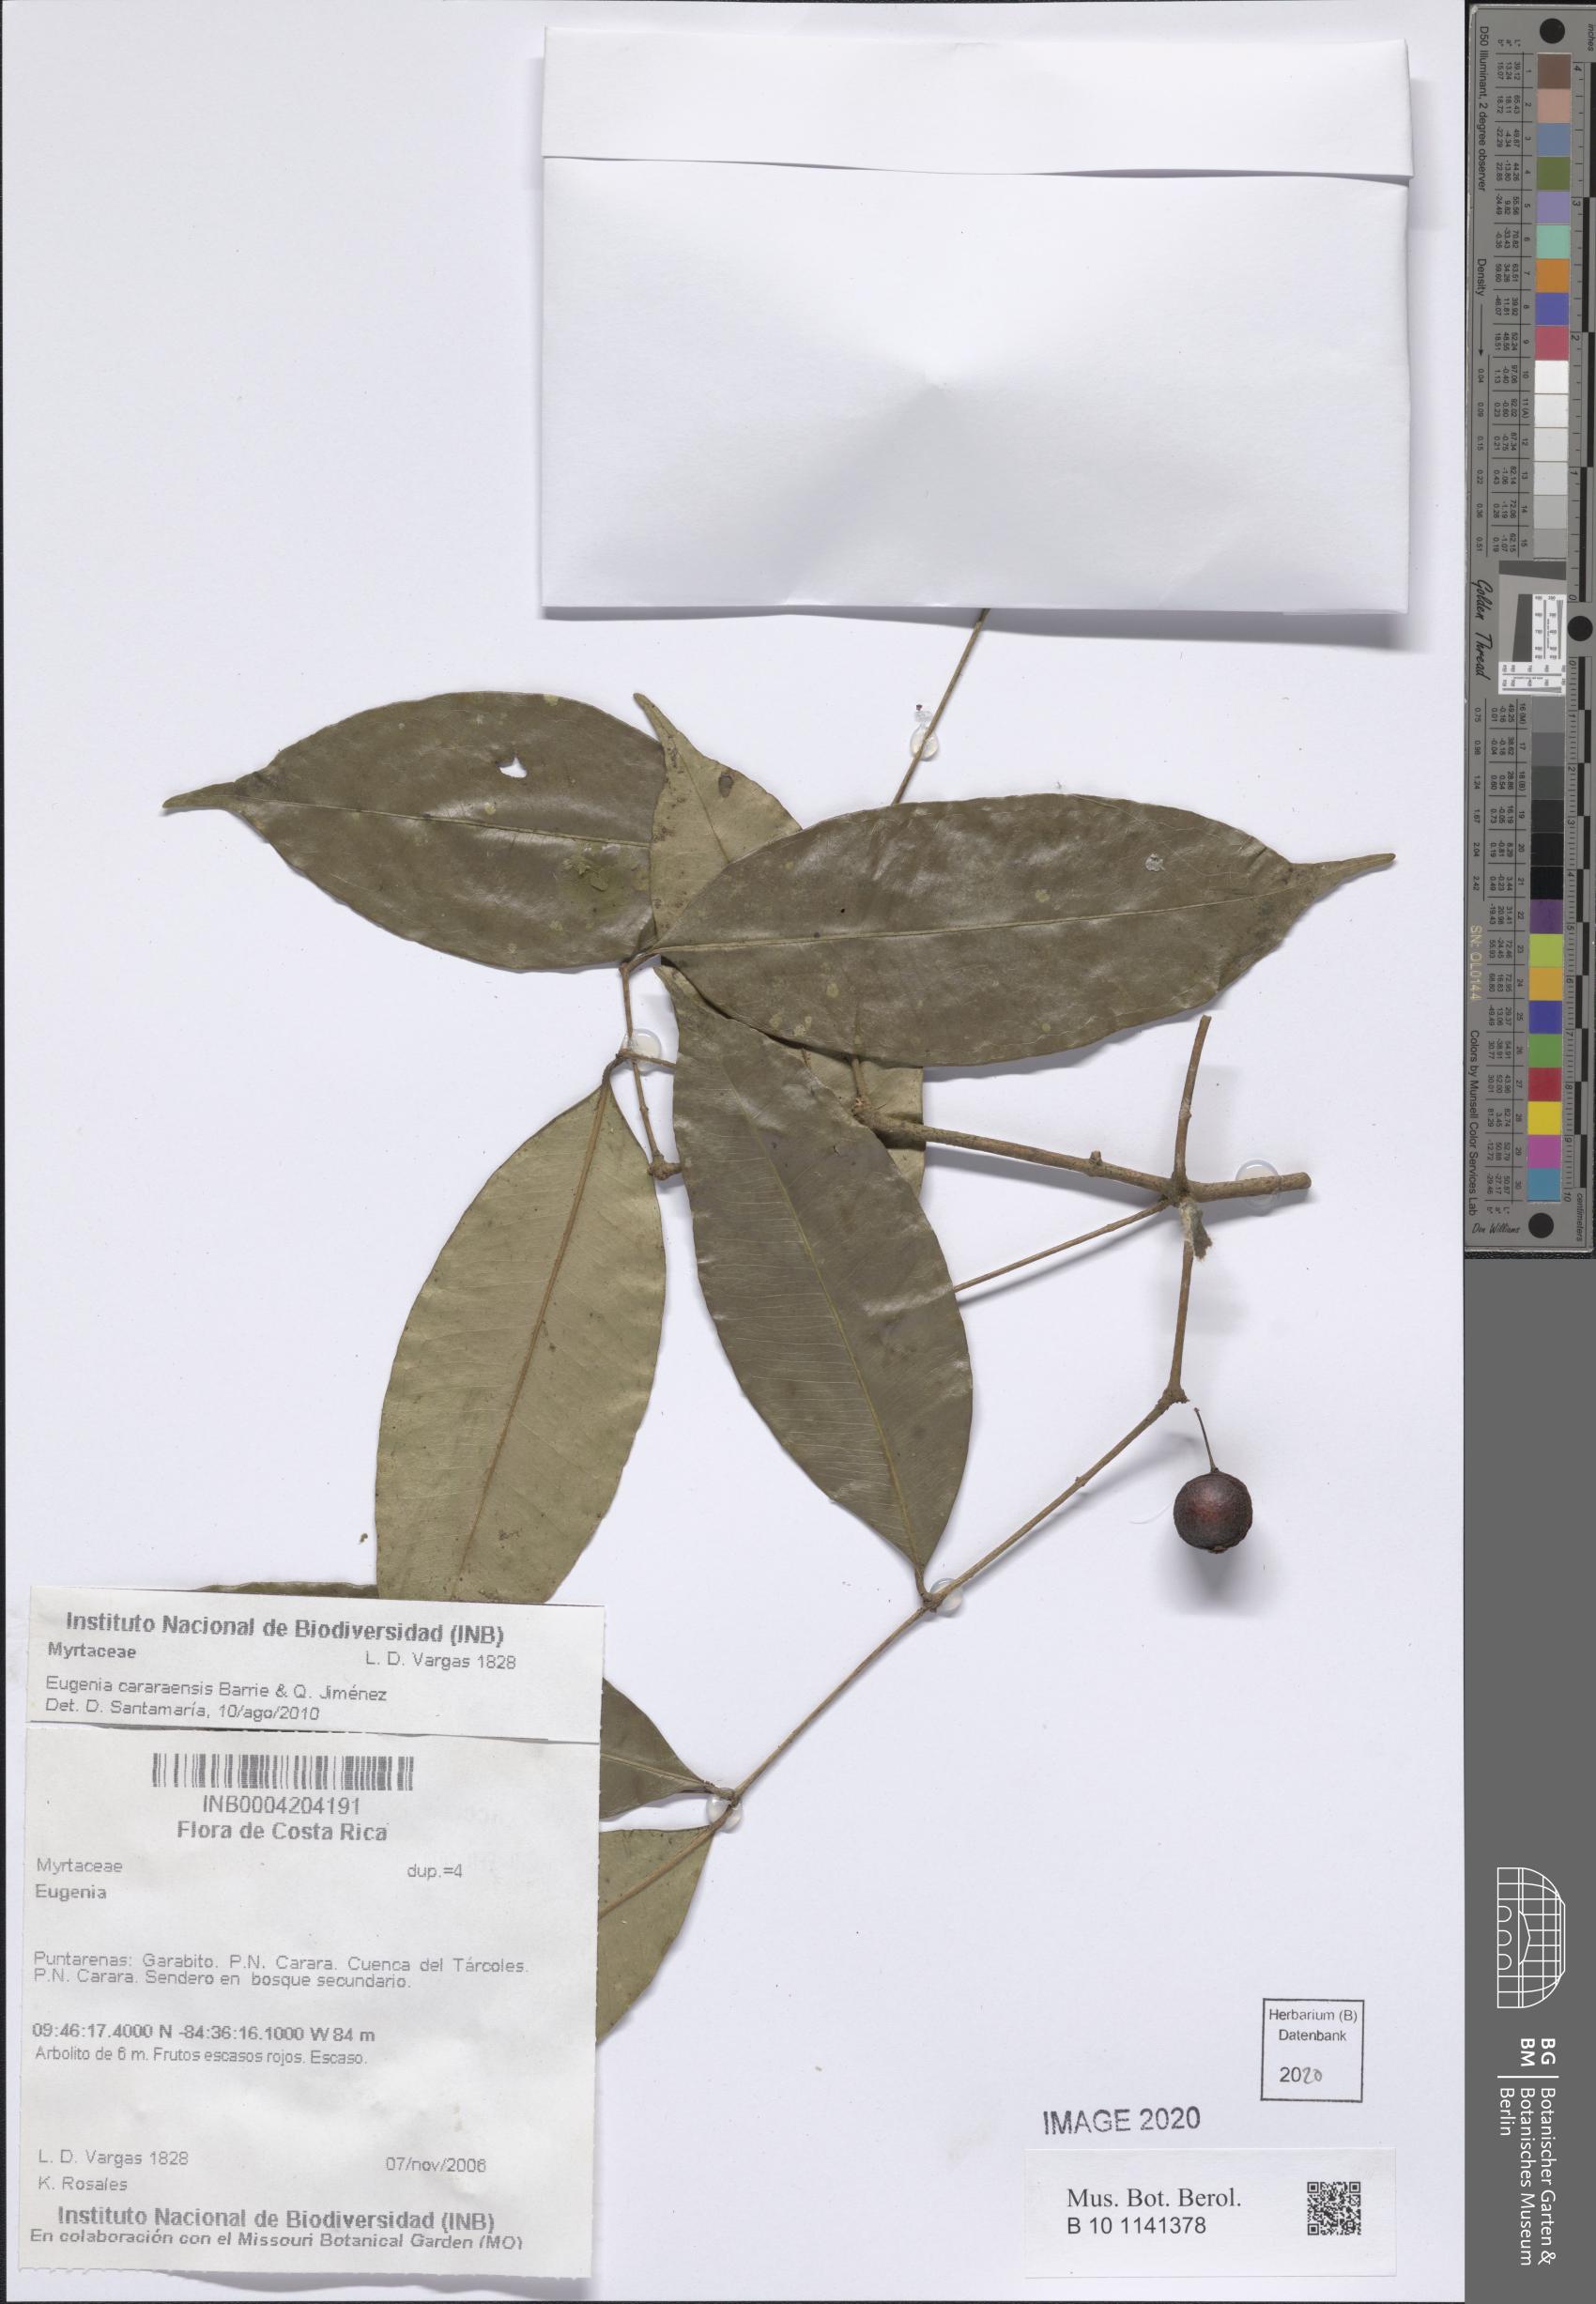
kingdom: Plantae
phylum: Tracheophyta
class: Magnoliopsida
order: Myrtales
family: Myrtaceae
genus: Eugenia
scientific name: Eugenia cararensis
